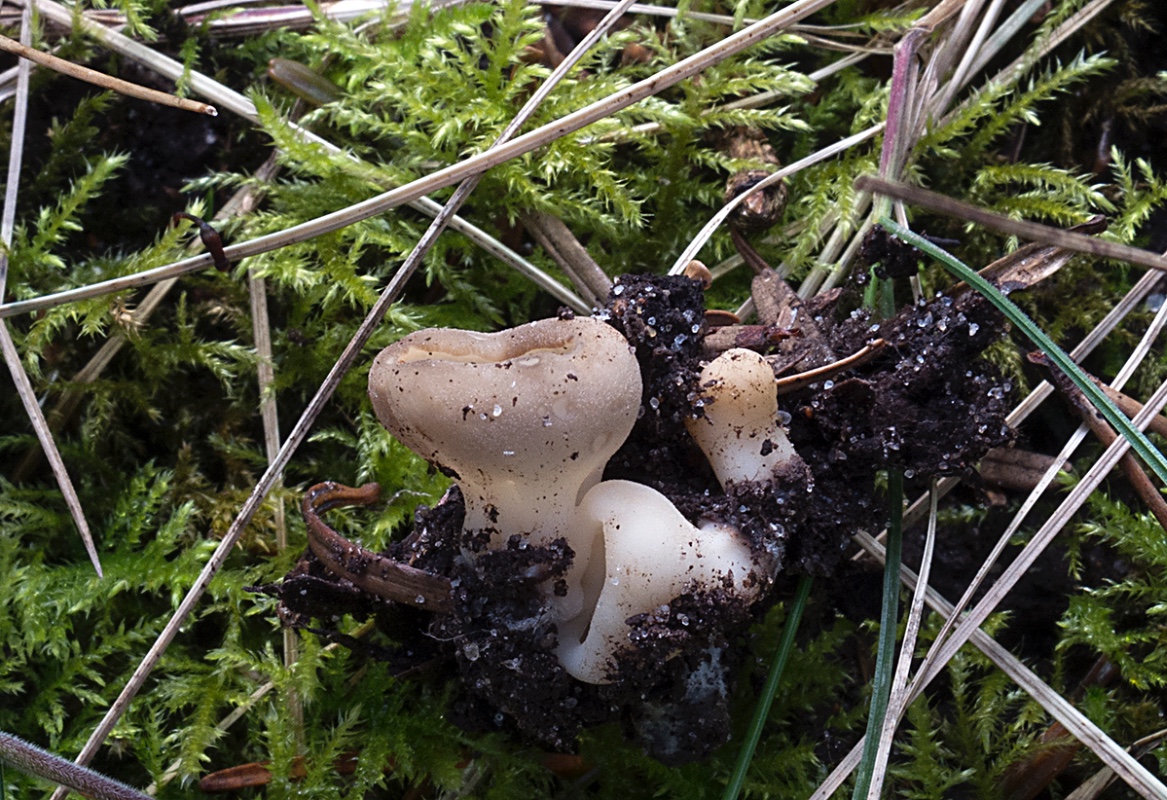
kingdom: Fungi
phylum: Ascomycota
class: Pezizomycetes
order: Pezizales
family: Helvellaceae
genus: Dissingia
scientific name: Dissingia confusa
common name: gran-foldhat
